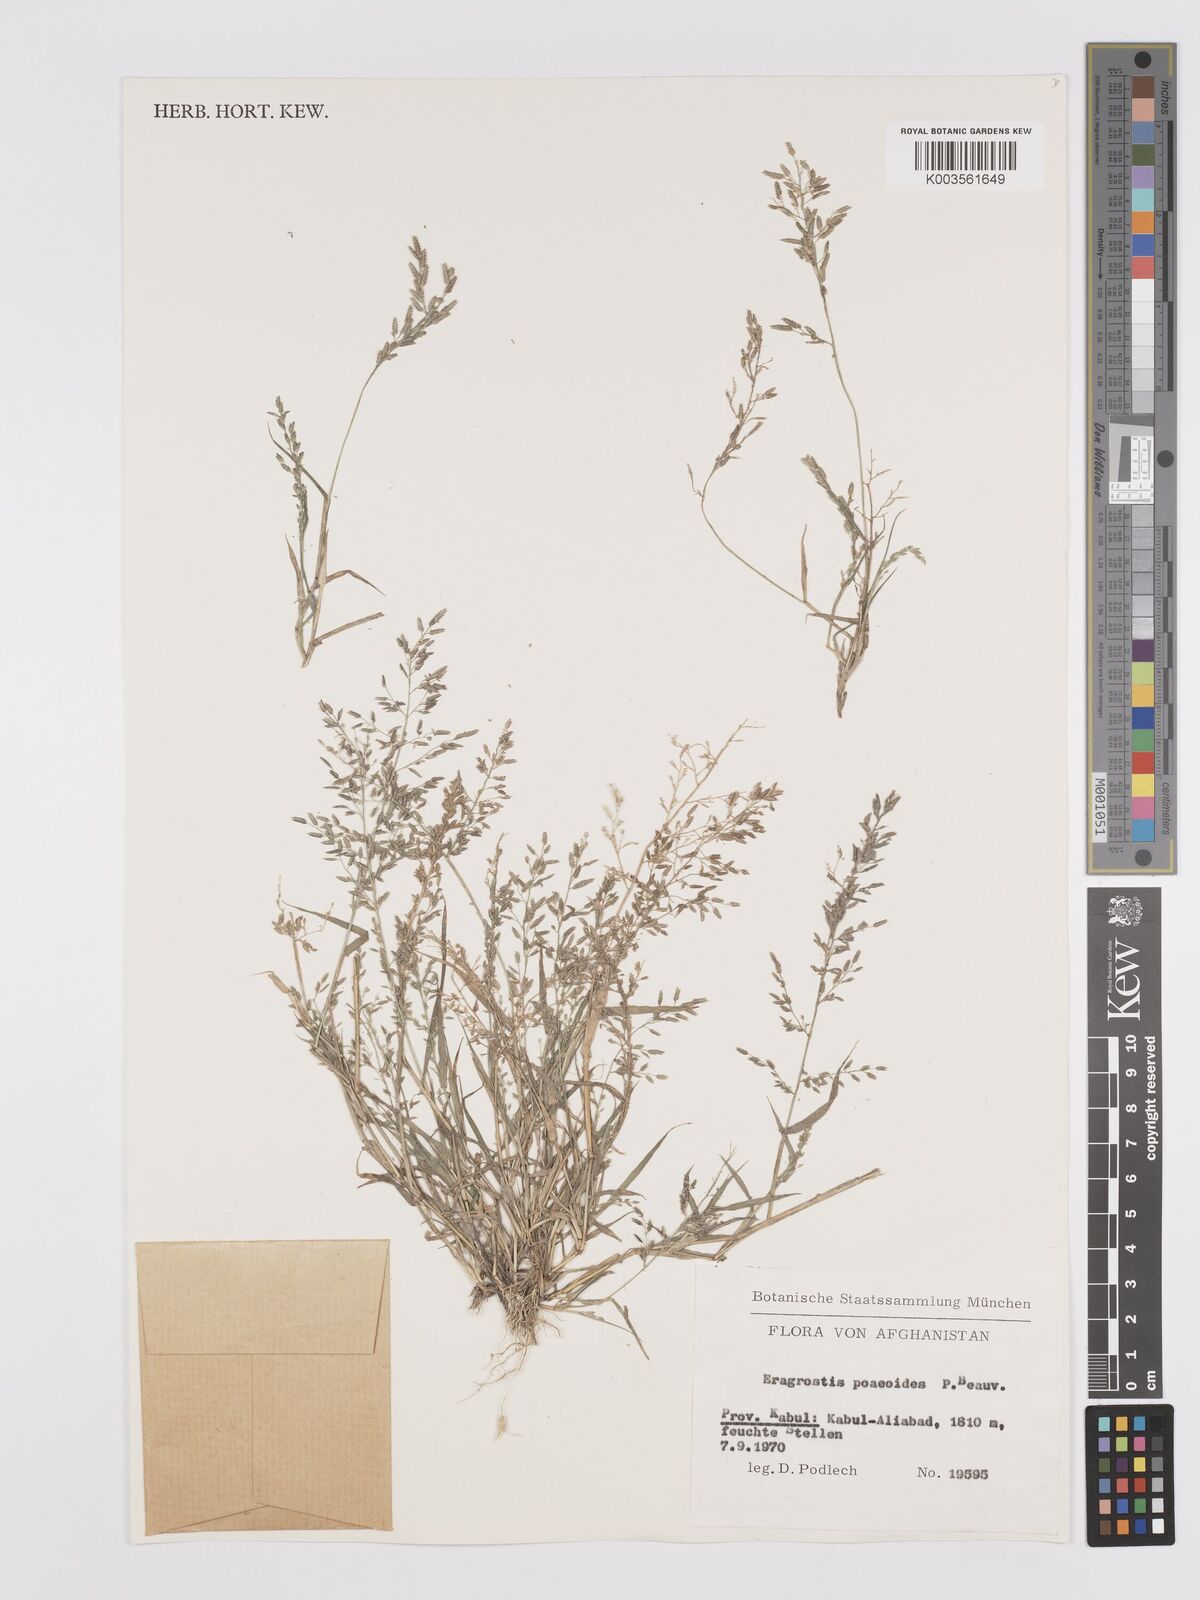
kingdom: Plantae
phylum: Tracheophyta
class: Liliopsida
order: Poales
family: Poaceae
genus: Eragrostis
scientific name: Eragrostis minor
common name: Small love-grass
